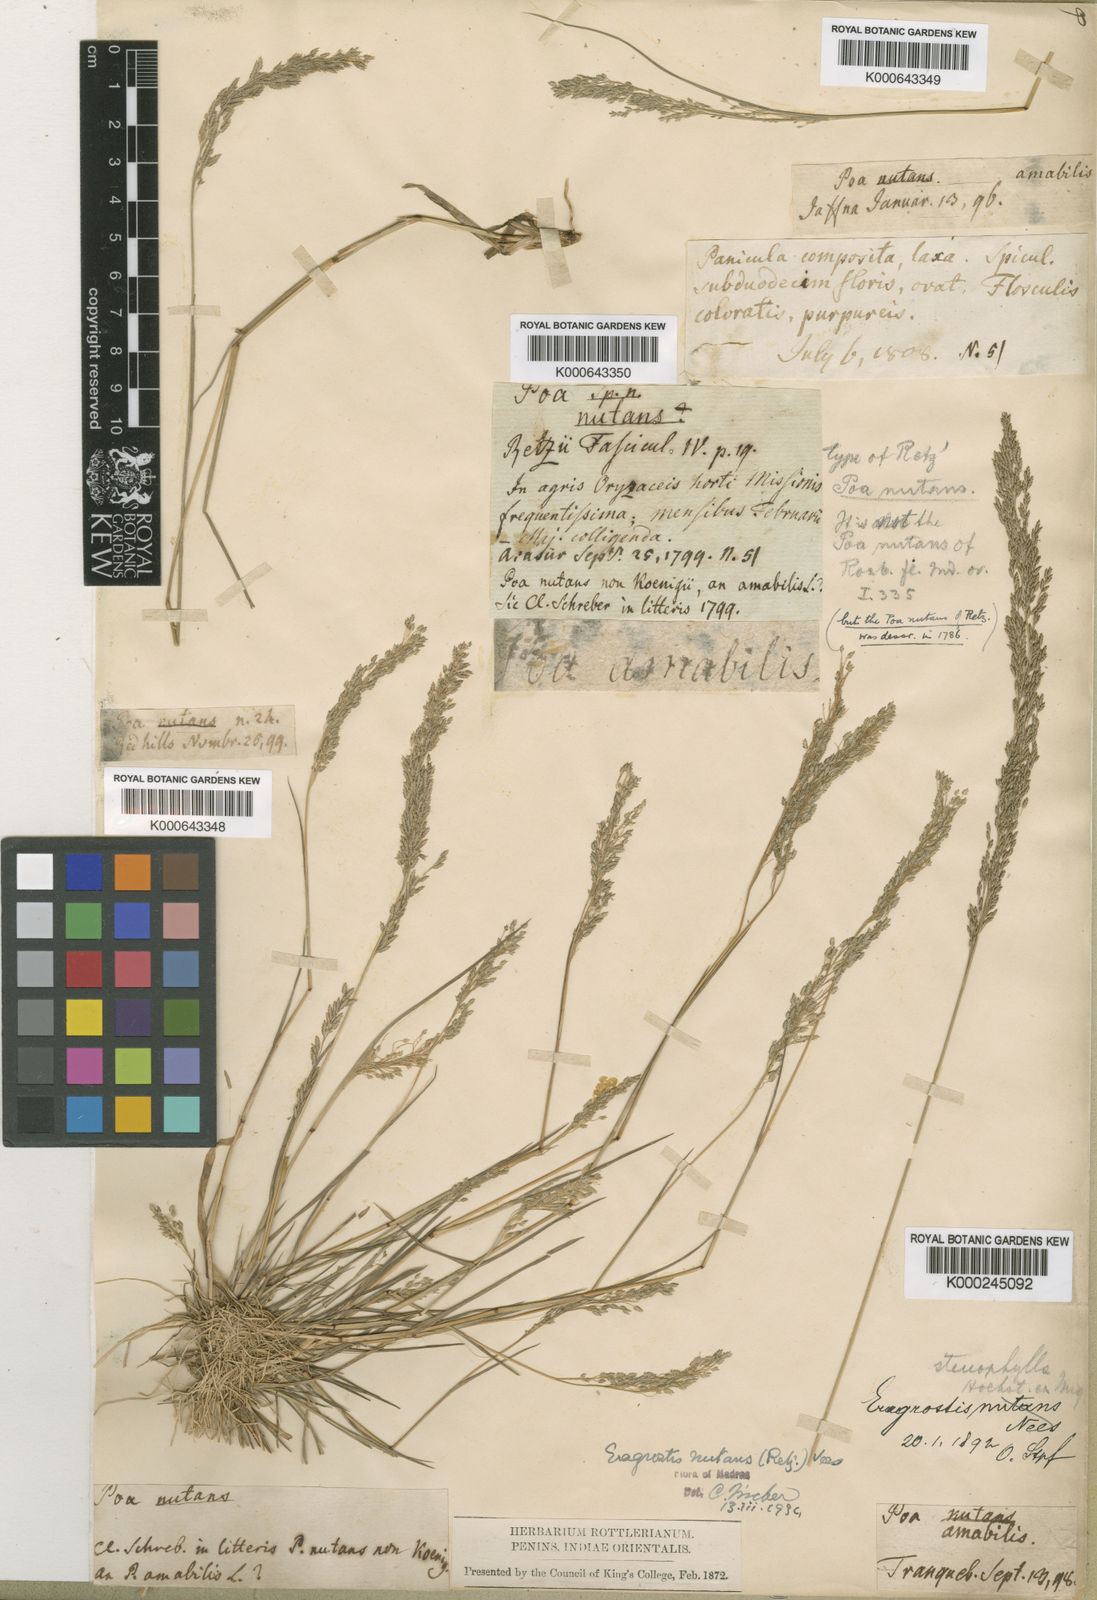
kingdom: Plantae
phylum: Tracheophyta
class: Liliopsida
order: Poales
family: Poaceae
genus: Eragrostis
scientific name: Eragrostis nutans
